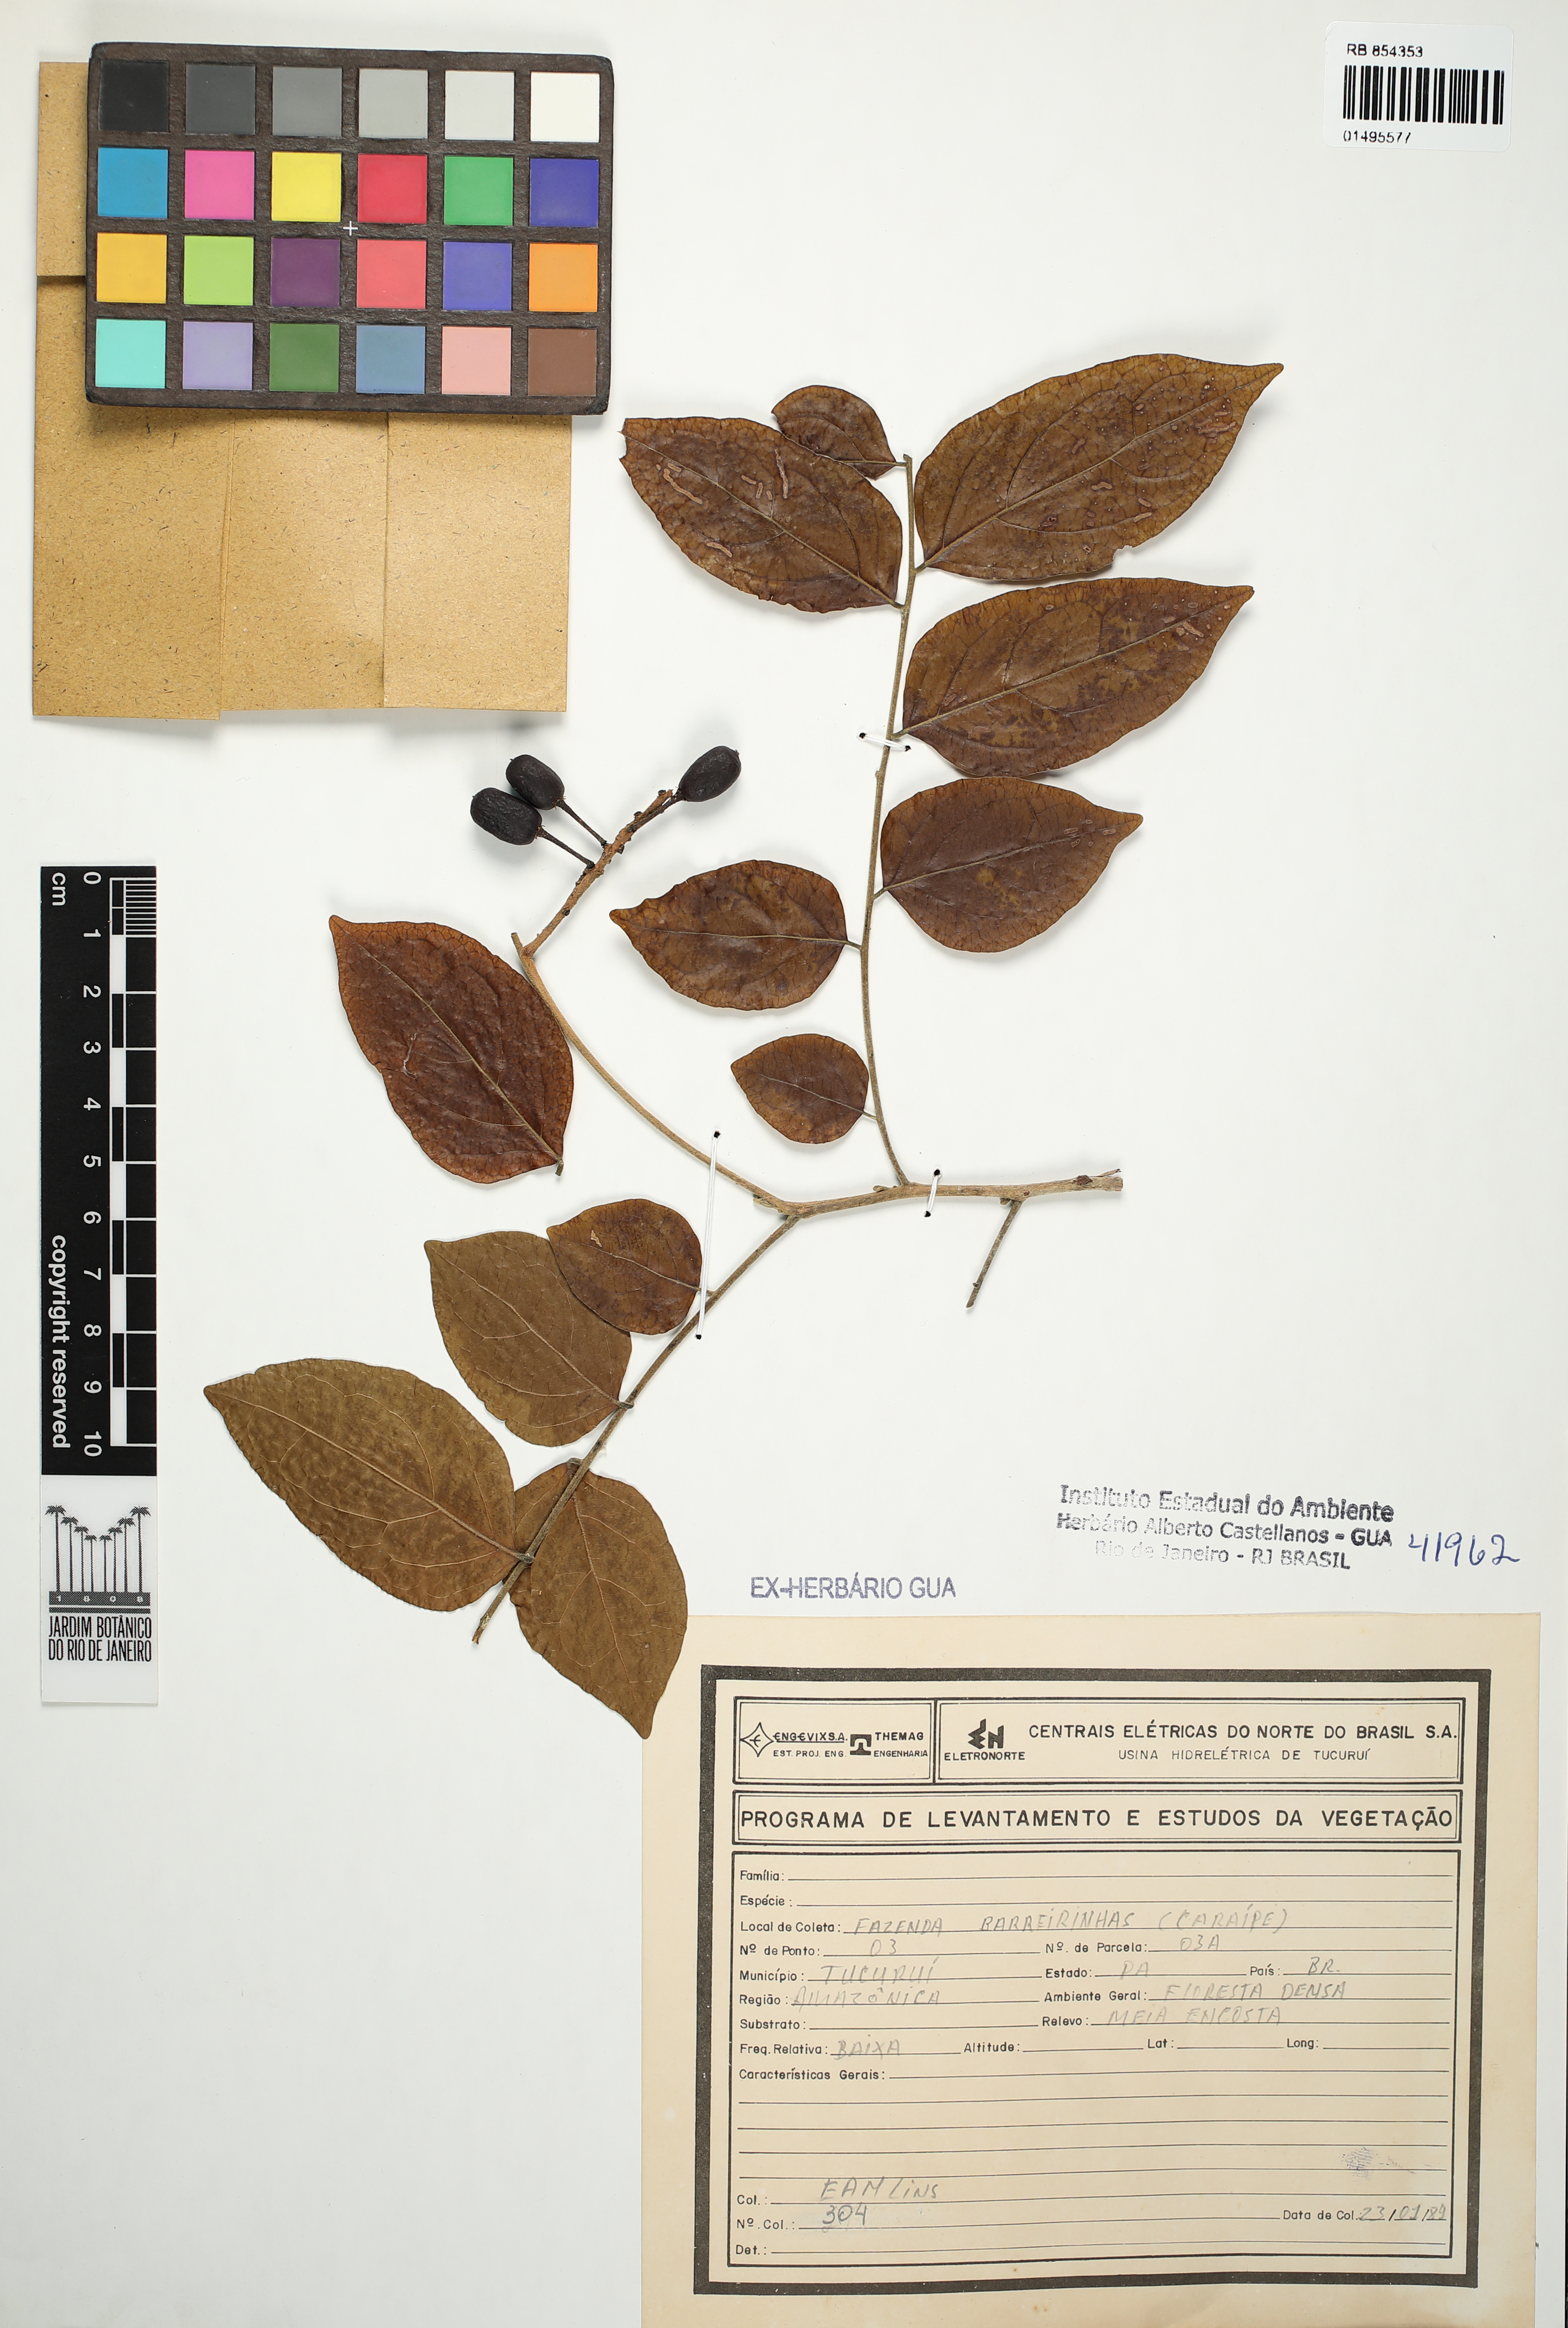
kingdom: Plantae
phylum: Tracheophyta
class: Magnoliopsida
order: Sapindales
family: Meliaceae
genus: Trichilia
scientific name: Trichilia
